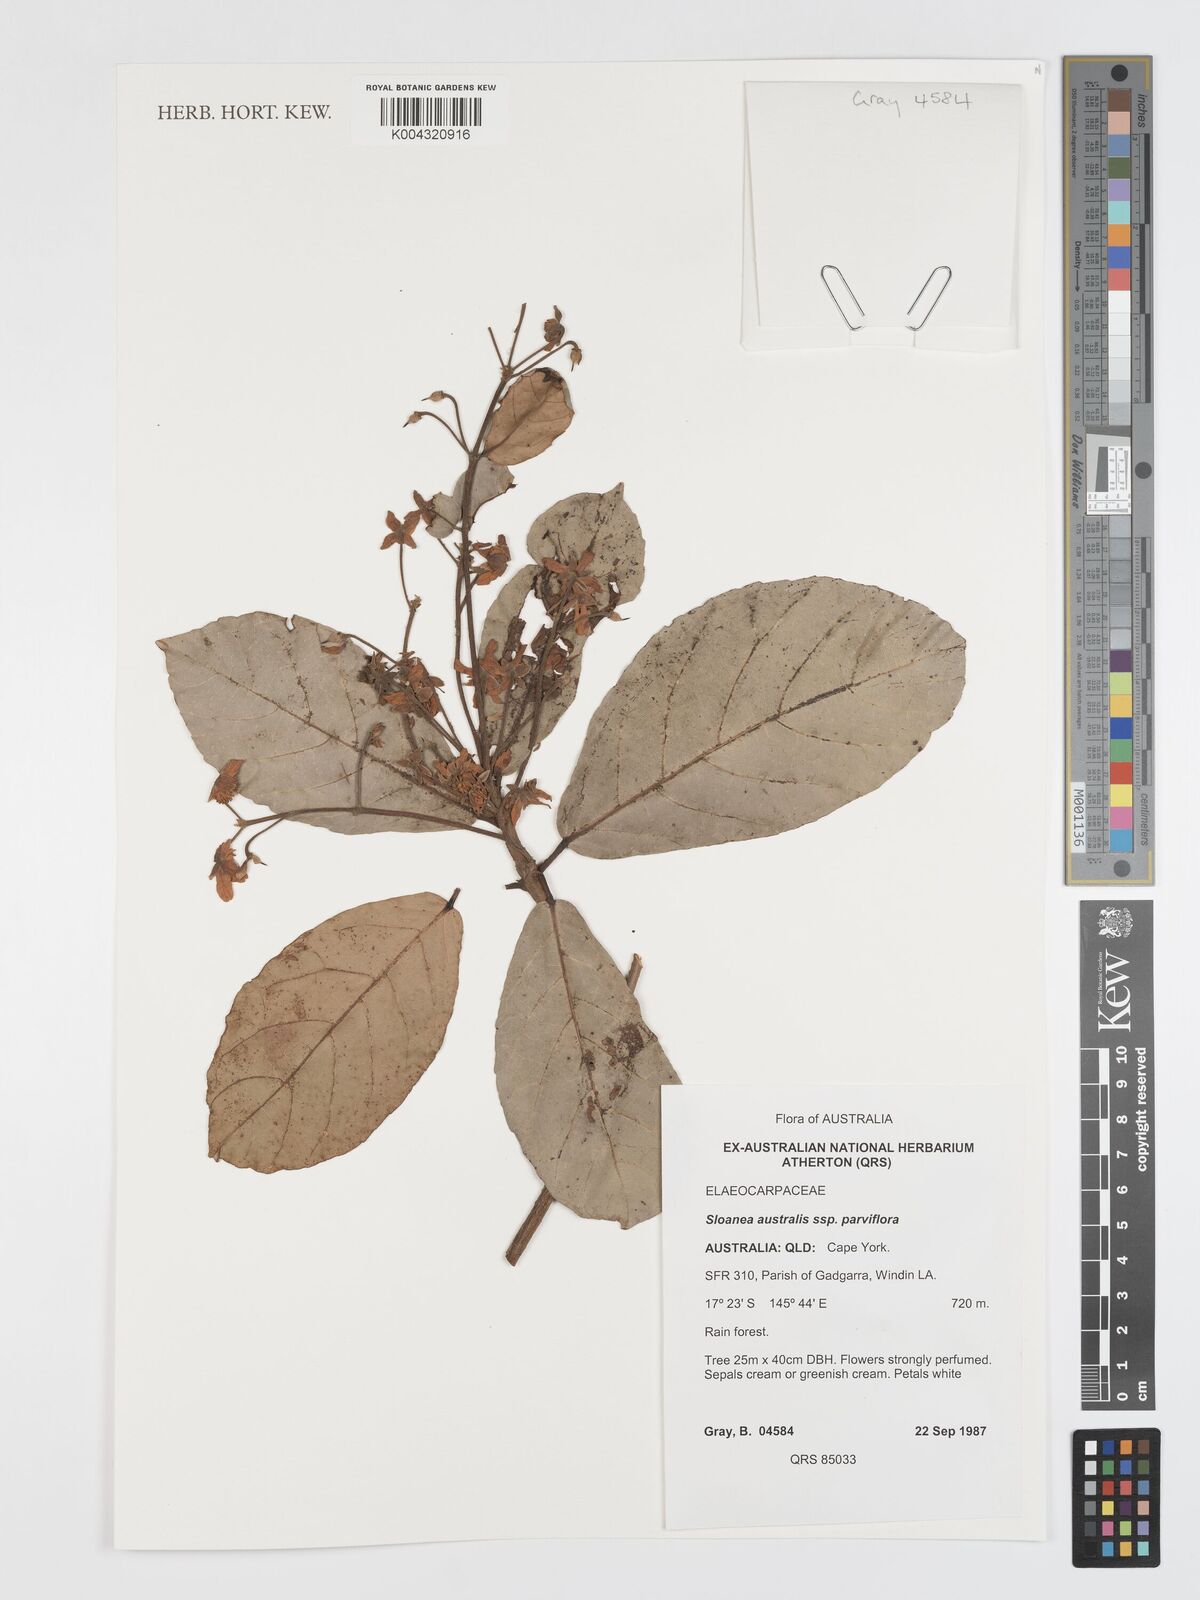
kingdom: Plantae
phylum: Tracheophyta
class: Magnoliopsida
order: Oxalidales
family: Elaeocarpaceae
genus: Sloanea
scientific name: Sloanea australis
